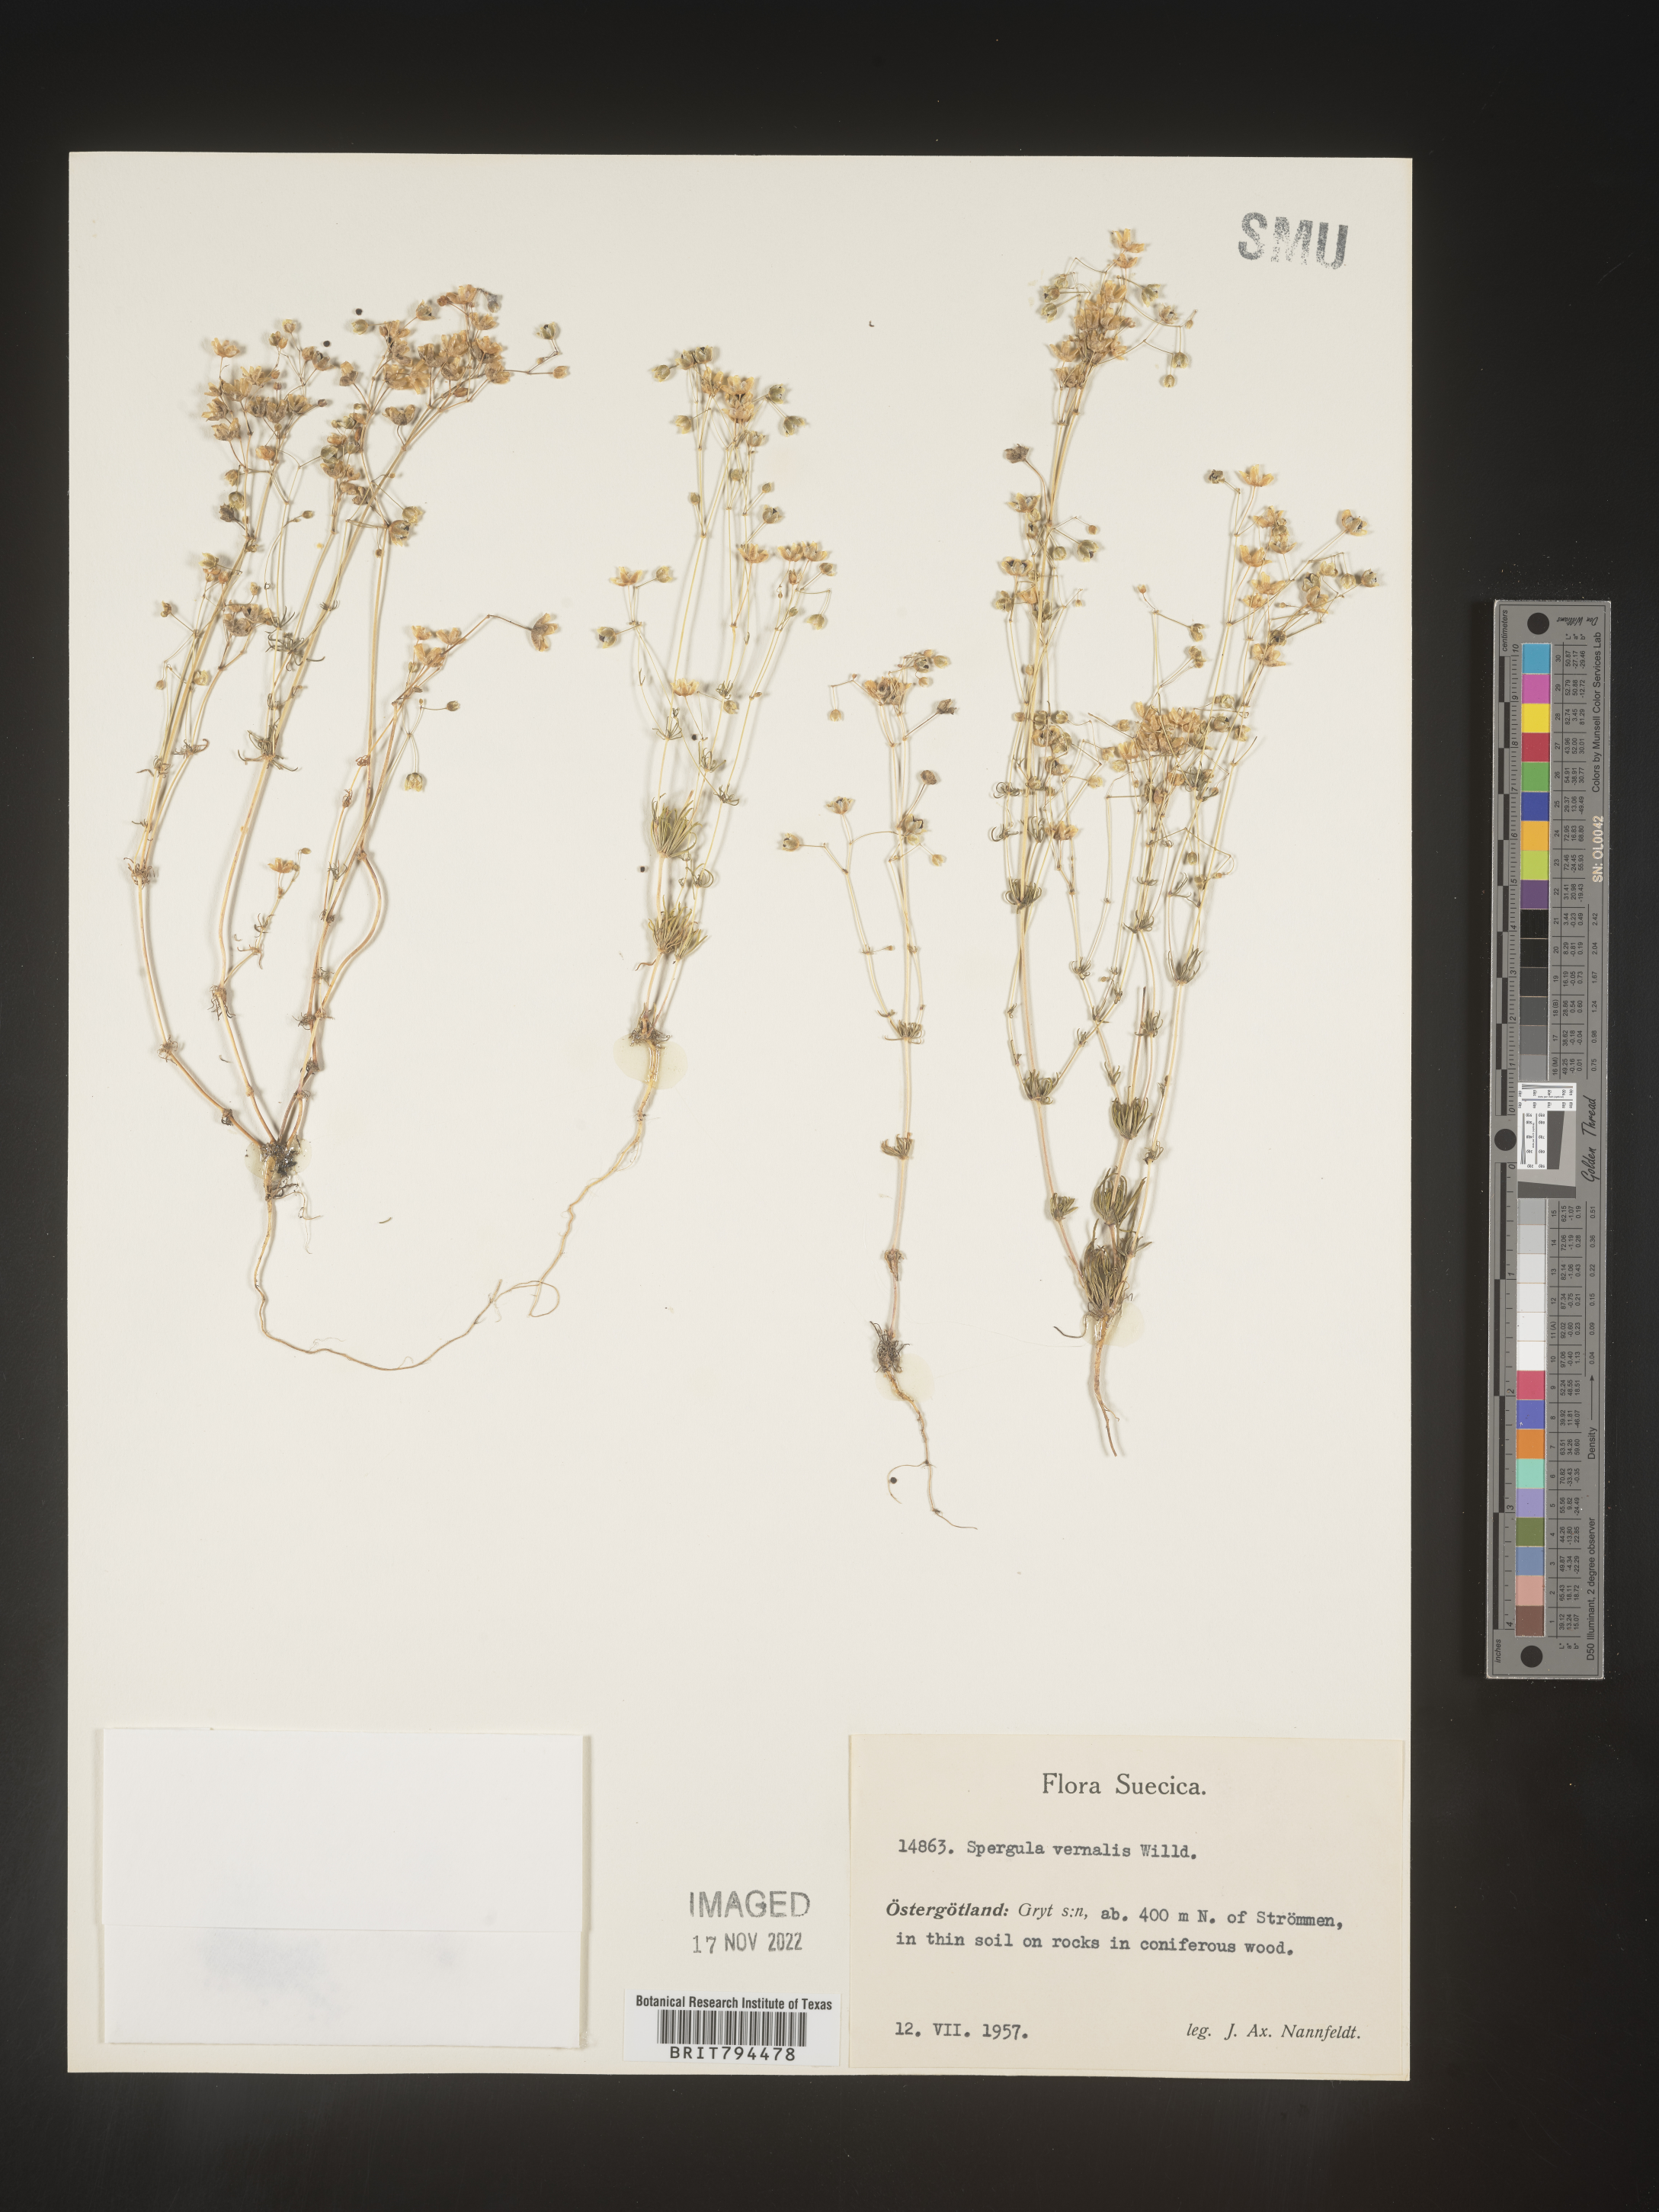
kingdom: Plantae
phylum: Tracheophyta
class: Magnoliopsida
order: Caryophyllales
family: Caryophyllaceae
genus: Spergula
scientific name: Spergula pentandra
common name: Wingstem spurry
